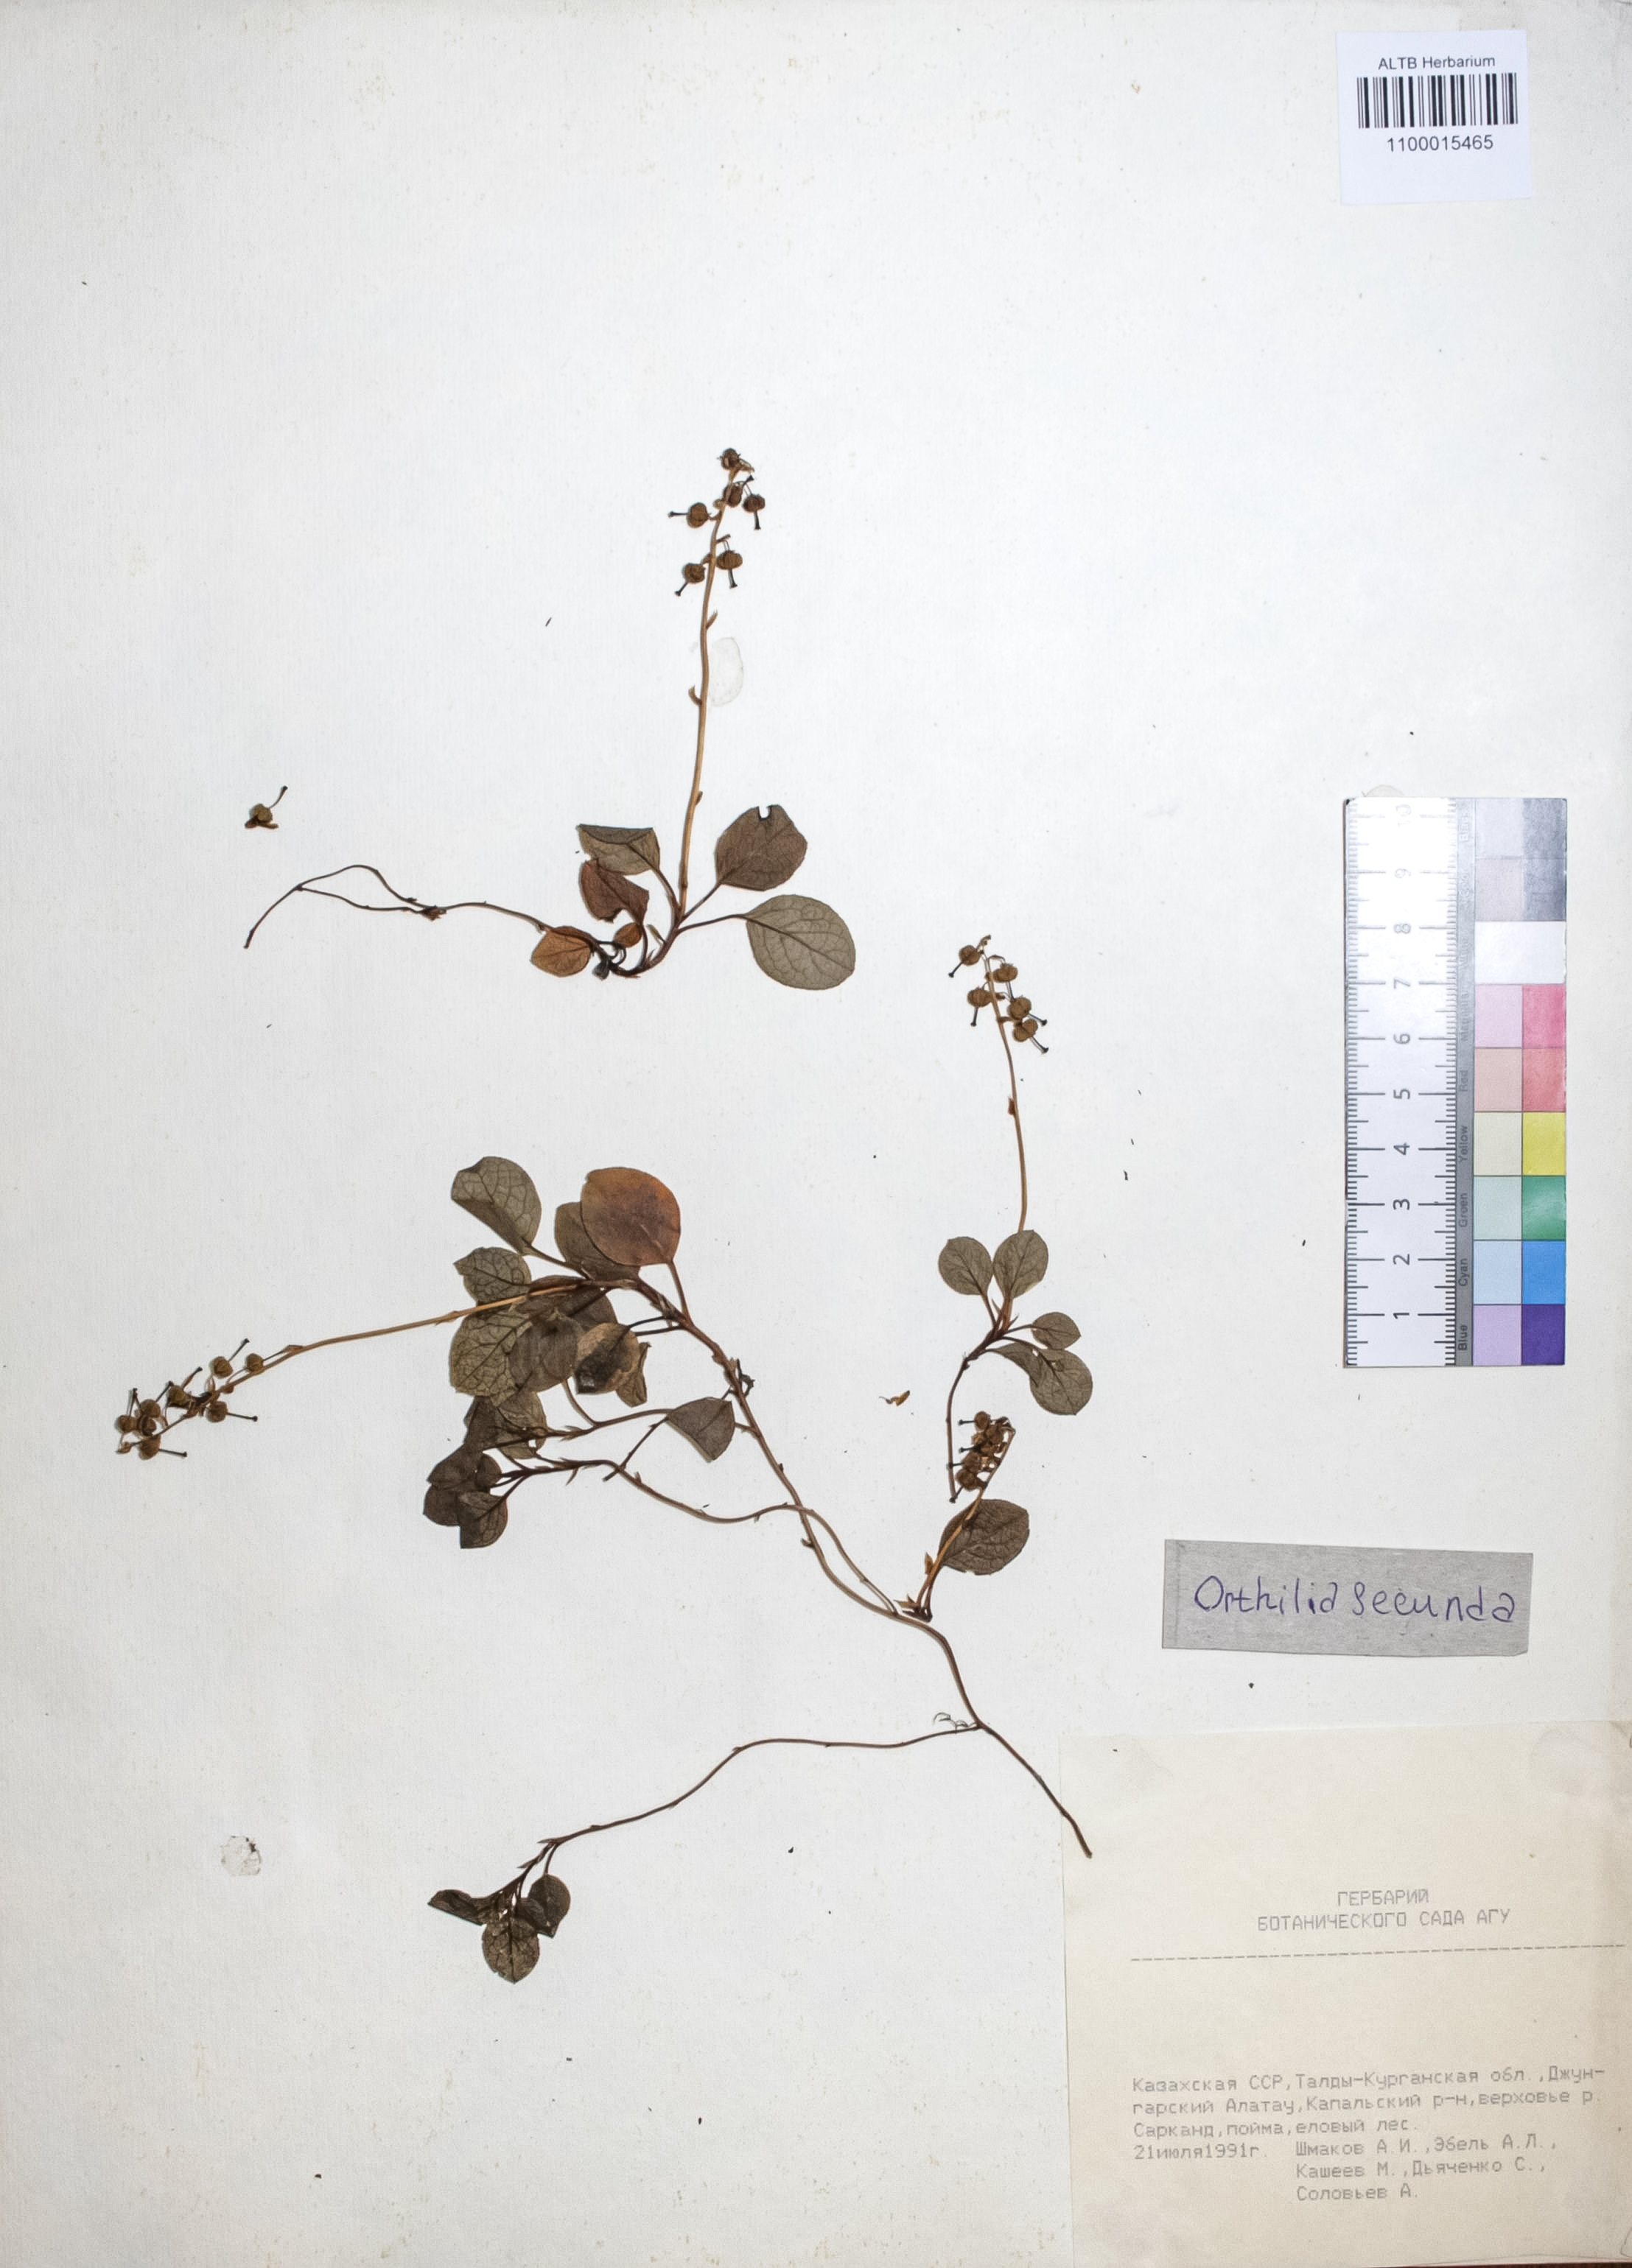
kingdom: Plantae
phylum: Tracheophyta
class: Magnoliopsida
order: Ericales
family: Ericaceae
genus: Orthilia
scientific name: Orthilia secunda
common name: One-sided orthilia
